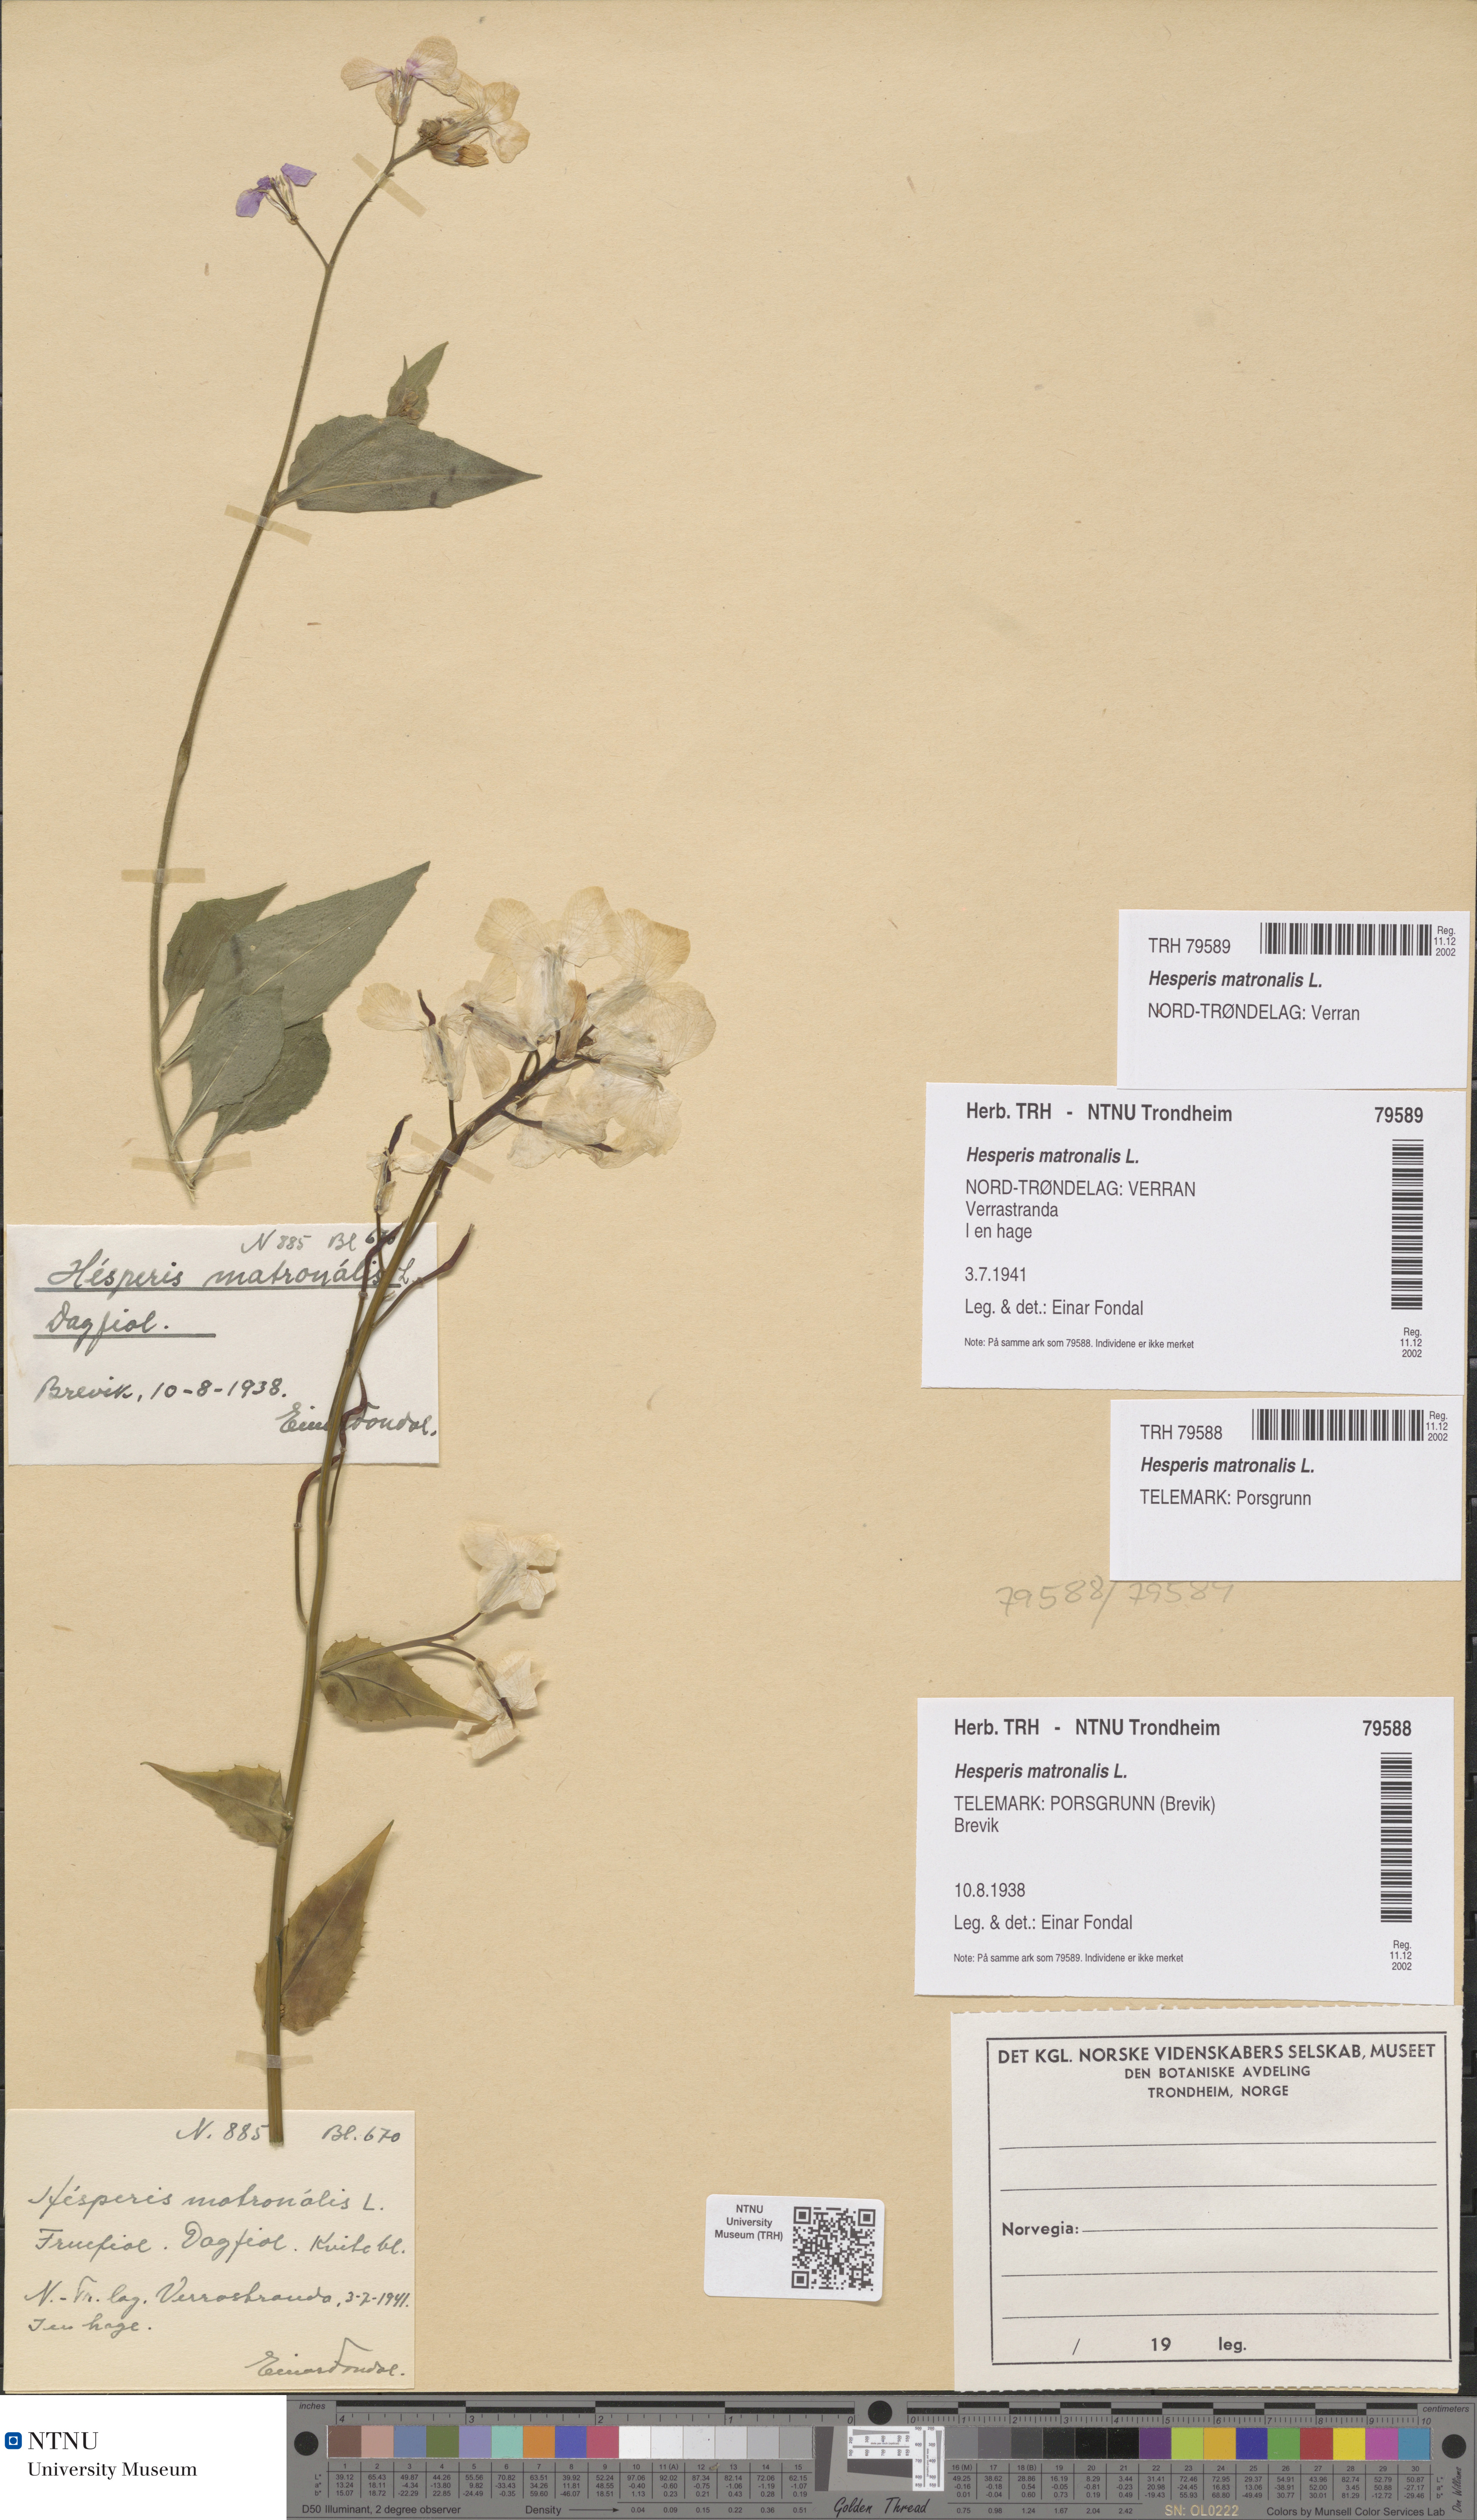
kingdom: Plantae
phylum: Tracheophyta
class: Magnoliopsida
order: Brassicales
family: Brassicaceae
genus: Hesperis
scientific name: Hesperis matronalis
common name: Dame's-violet
